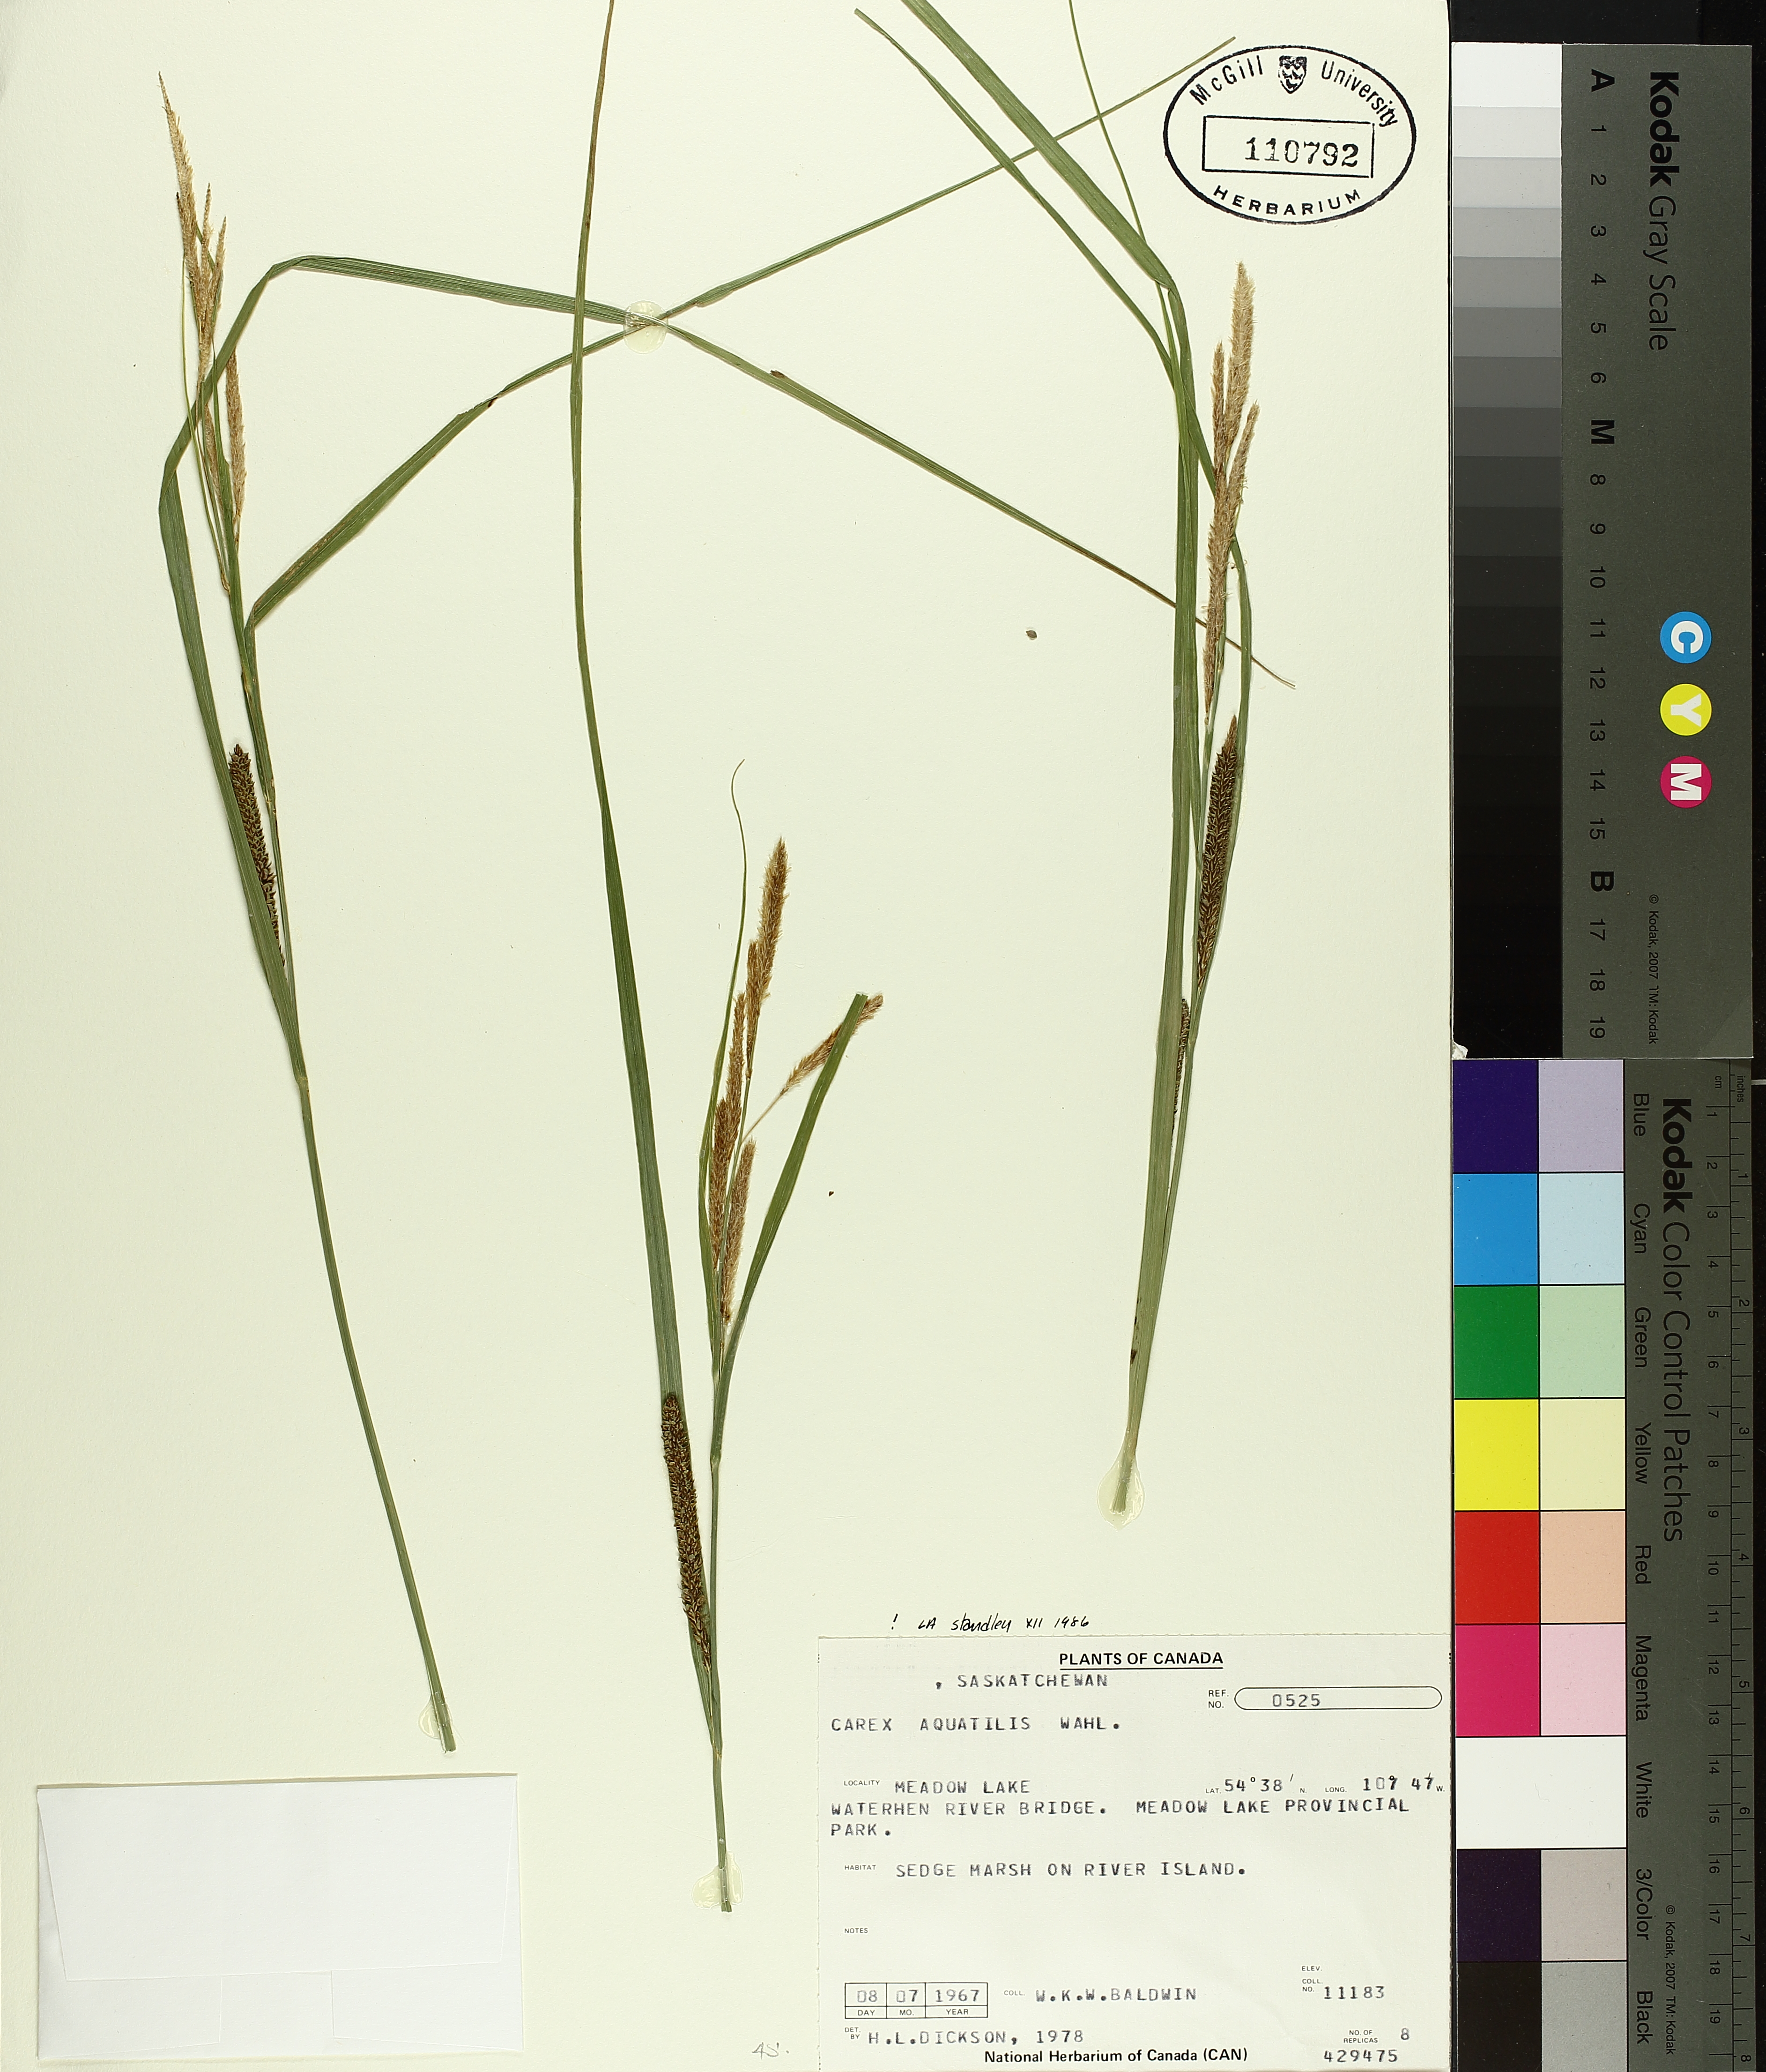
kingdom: Plantae
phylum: Tracheophyta
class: Liliopsida
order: Poales
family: Cyperaceae
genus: Carex
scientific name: Carex aquatilis
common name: Water sedge
